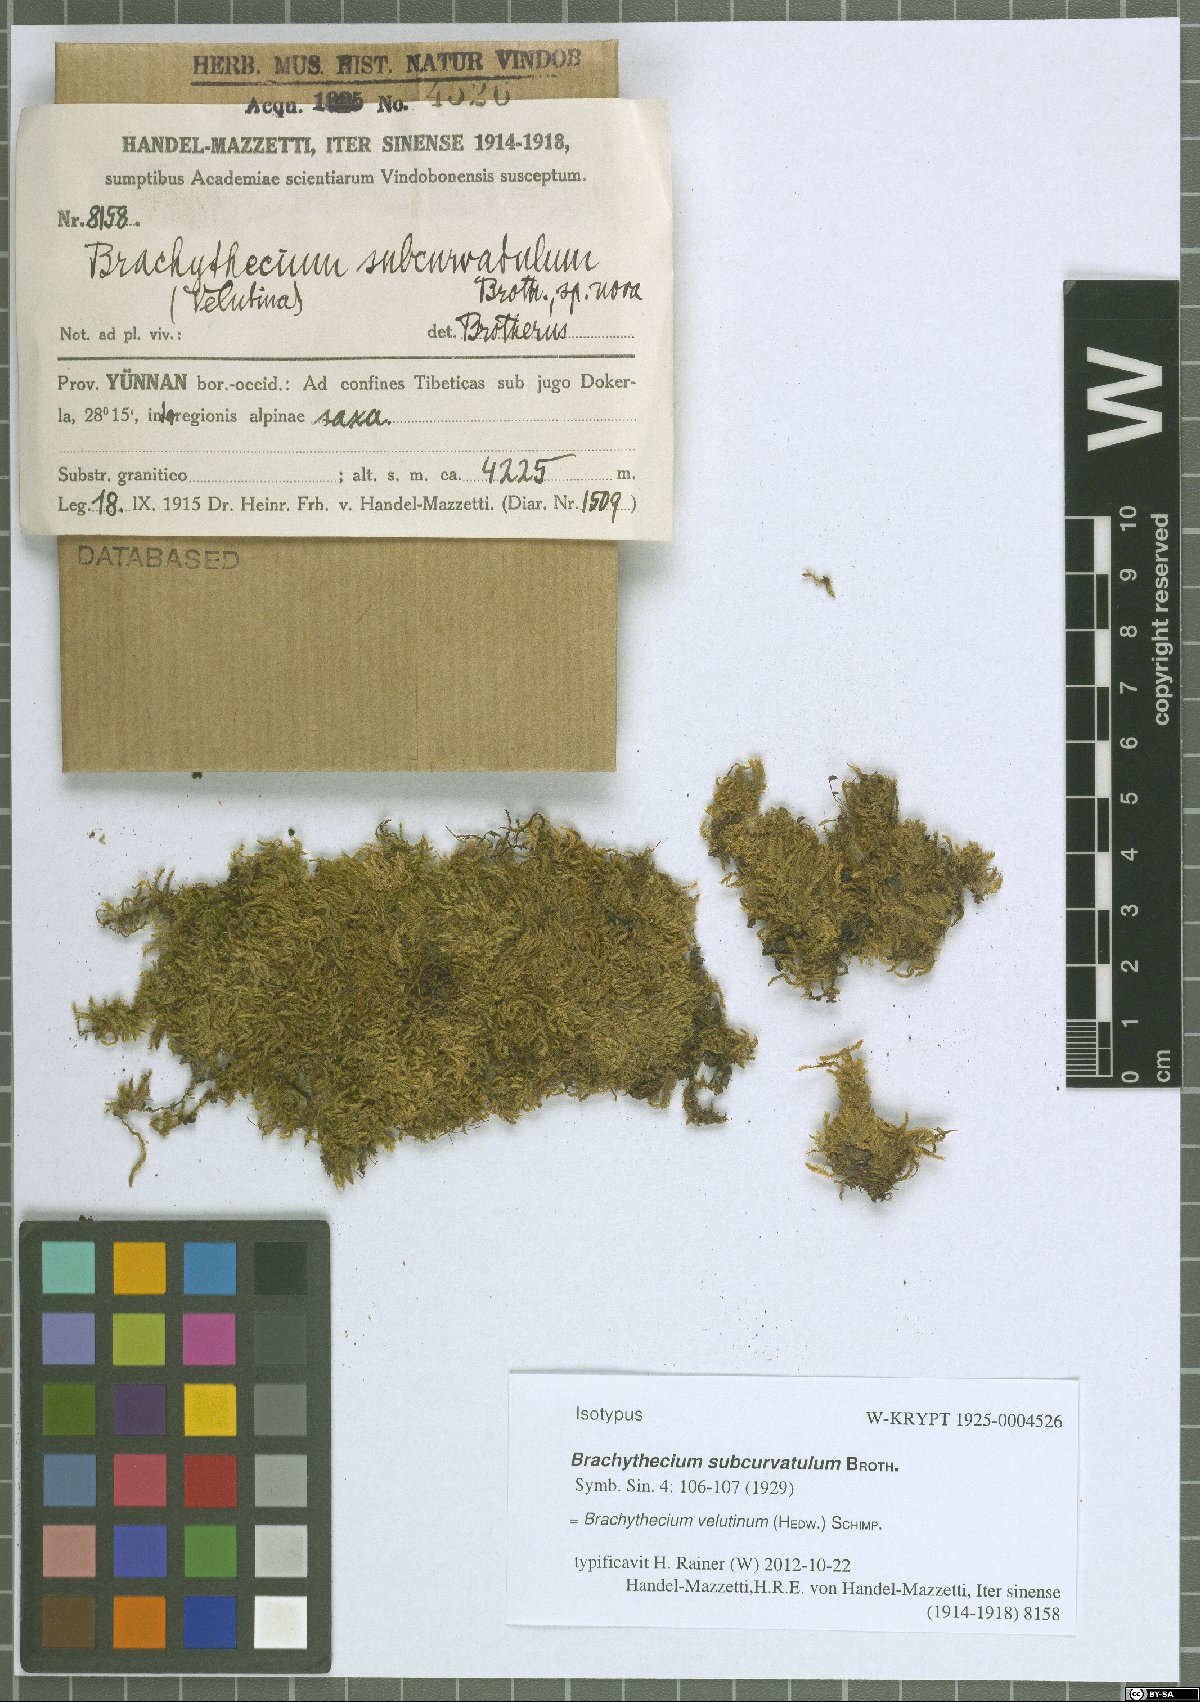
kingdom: Plantae
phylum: Bryophyta
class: Bryopsida
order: Hypnales
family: Brachytheciaceae
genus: Brachytheciastrum
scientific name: Brachytheciastrum velutinum
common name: Velvet feather-moss
